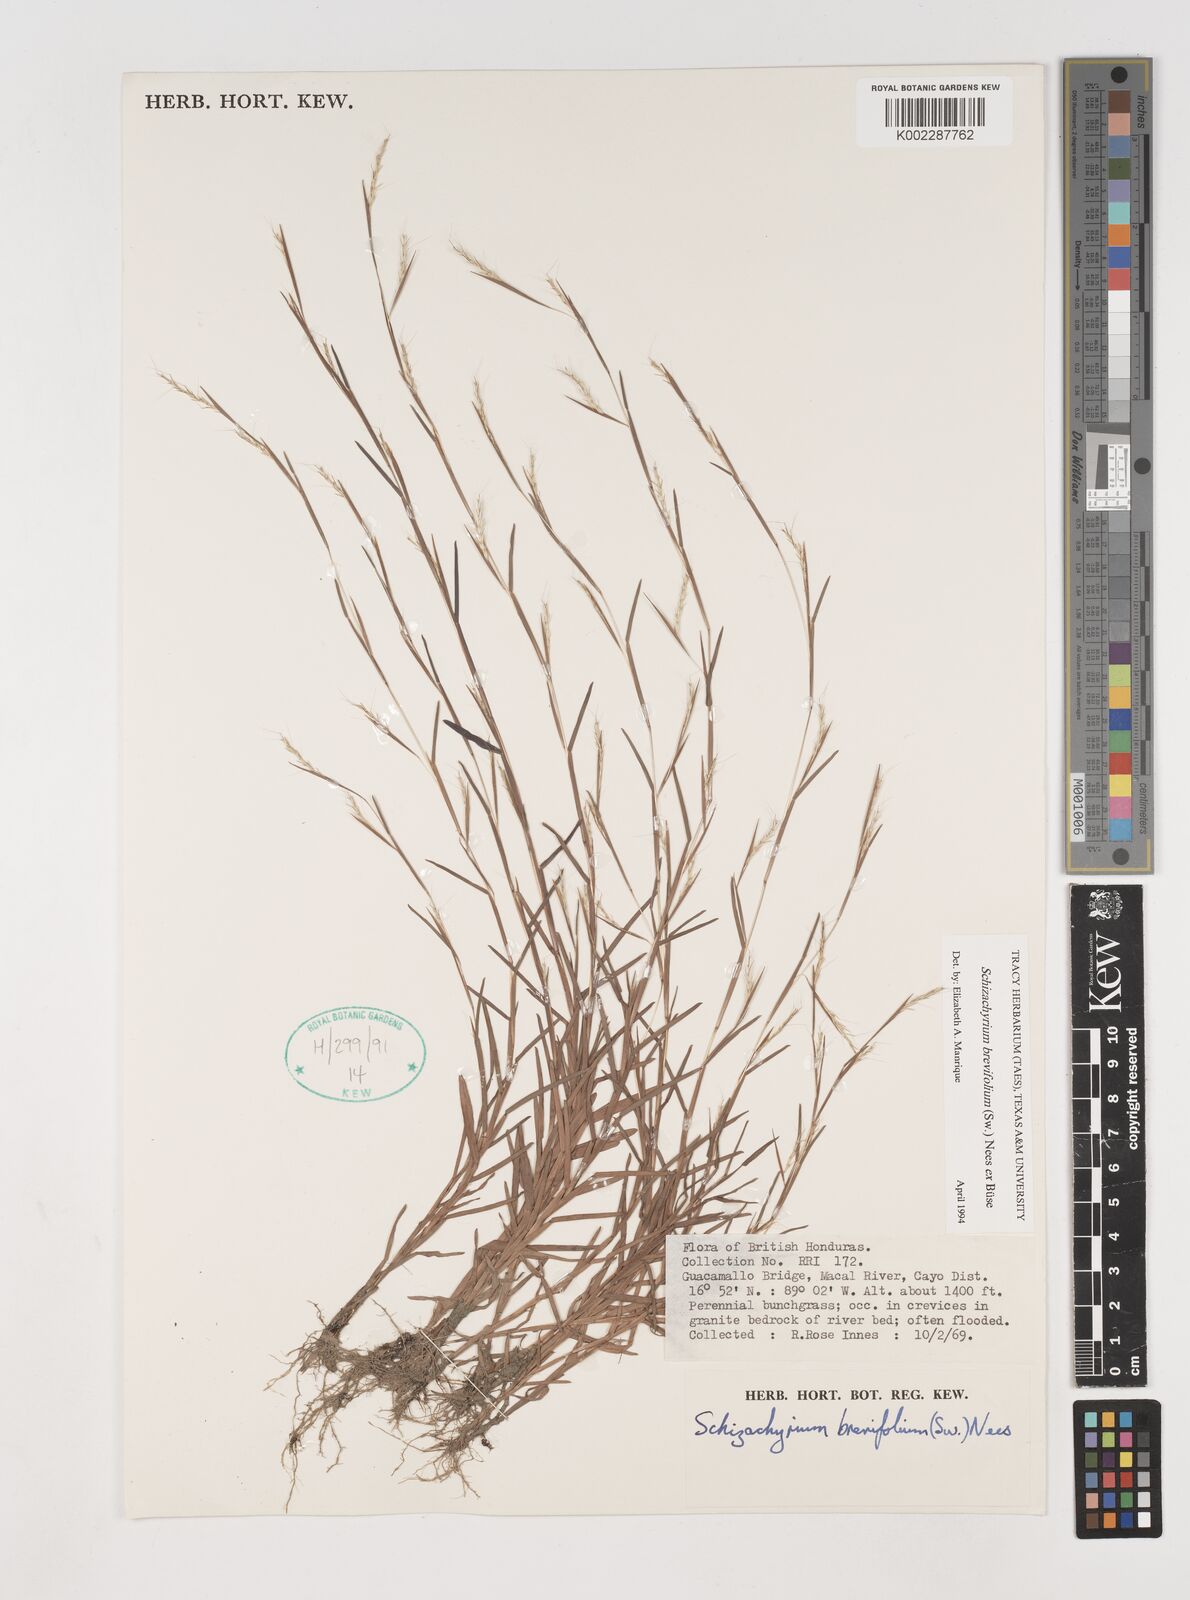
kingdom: Plantae
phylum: Tracheophyta
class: Liliopsida
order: Poales
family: Poaceae
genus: Schizachyrium
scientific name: Schizachyrium brevifolium
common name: Serillo dulce
